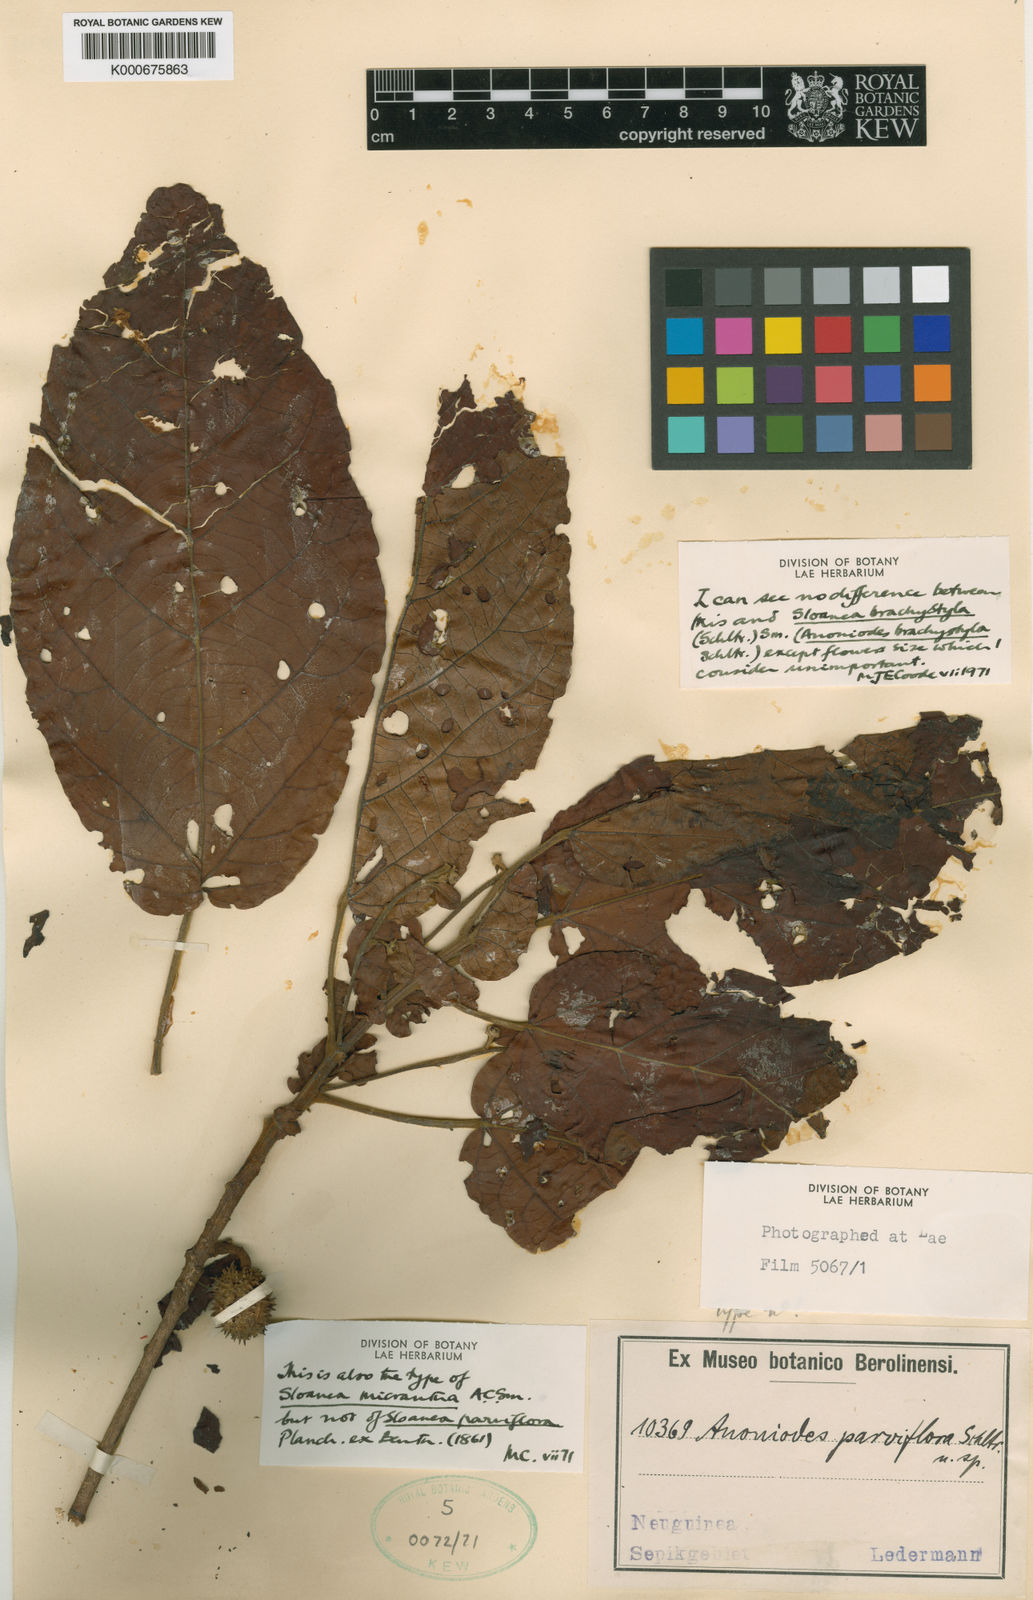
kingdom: Plantae
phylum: Tracheophyta
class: Magnoliopsida
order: Oxalidales
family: Elaeocarpaceae
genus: Sloanea
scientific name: Sloanea brachystyla
